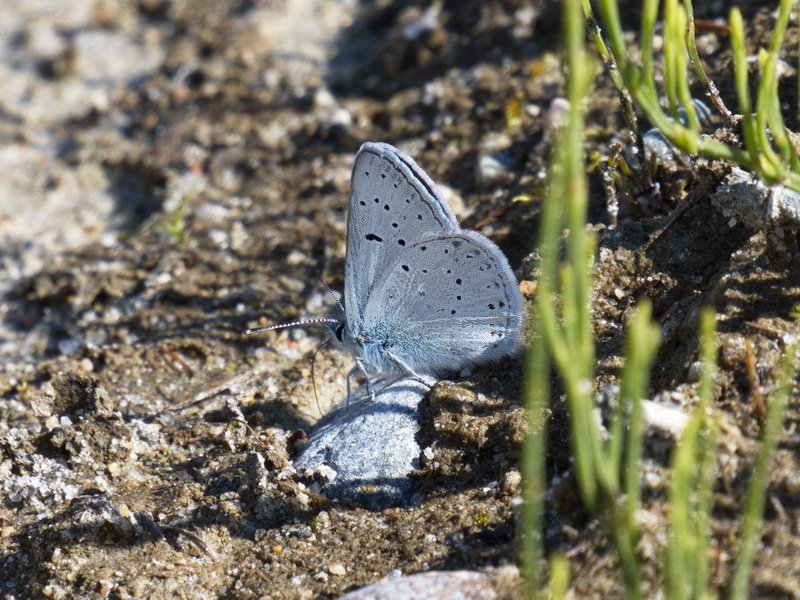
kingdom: Animalia
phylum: Arthropoda
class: Insecta
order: Lepidoptera
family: Lycaenidae
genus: Plebejus
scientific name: Plebejus saepiolus
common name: Greenish Blue
